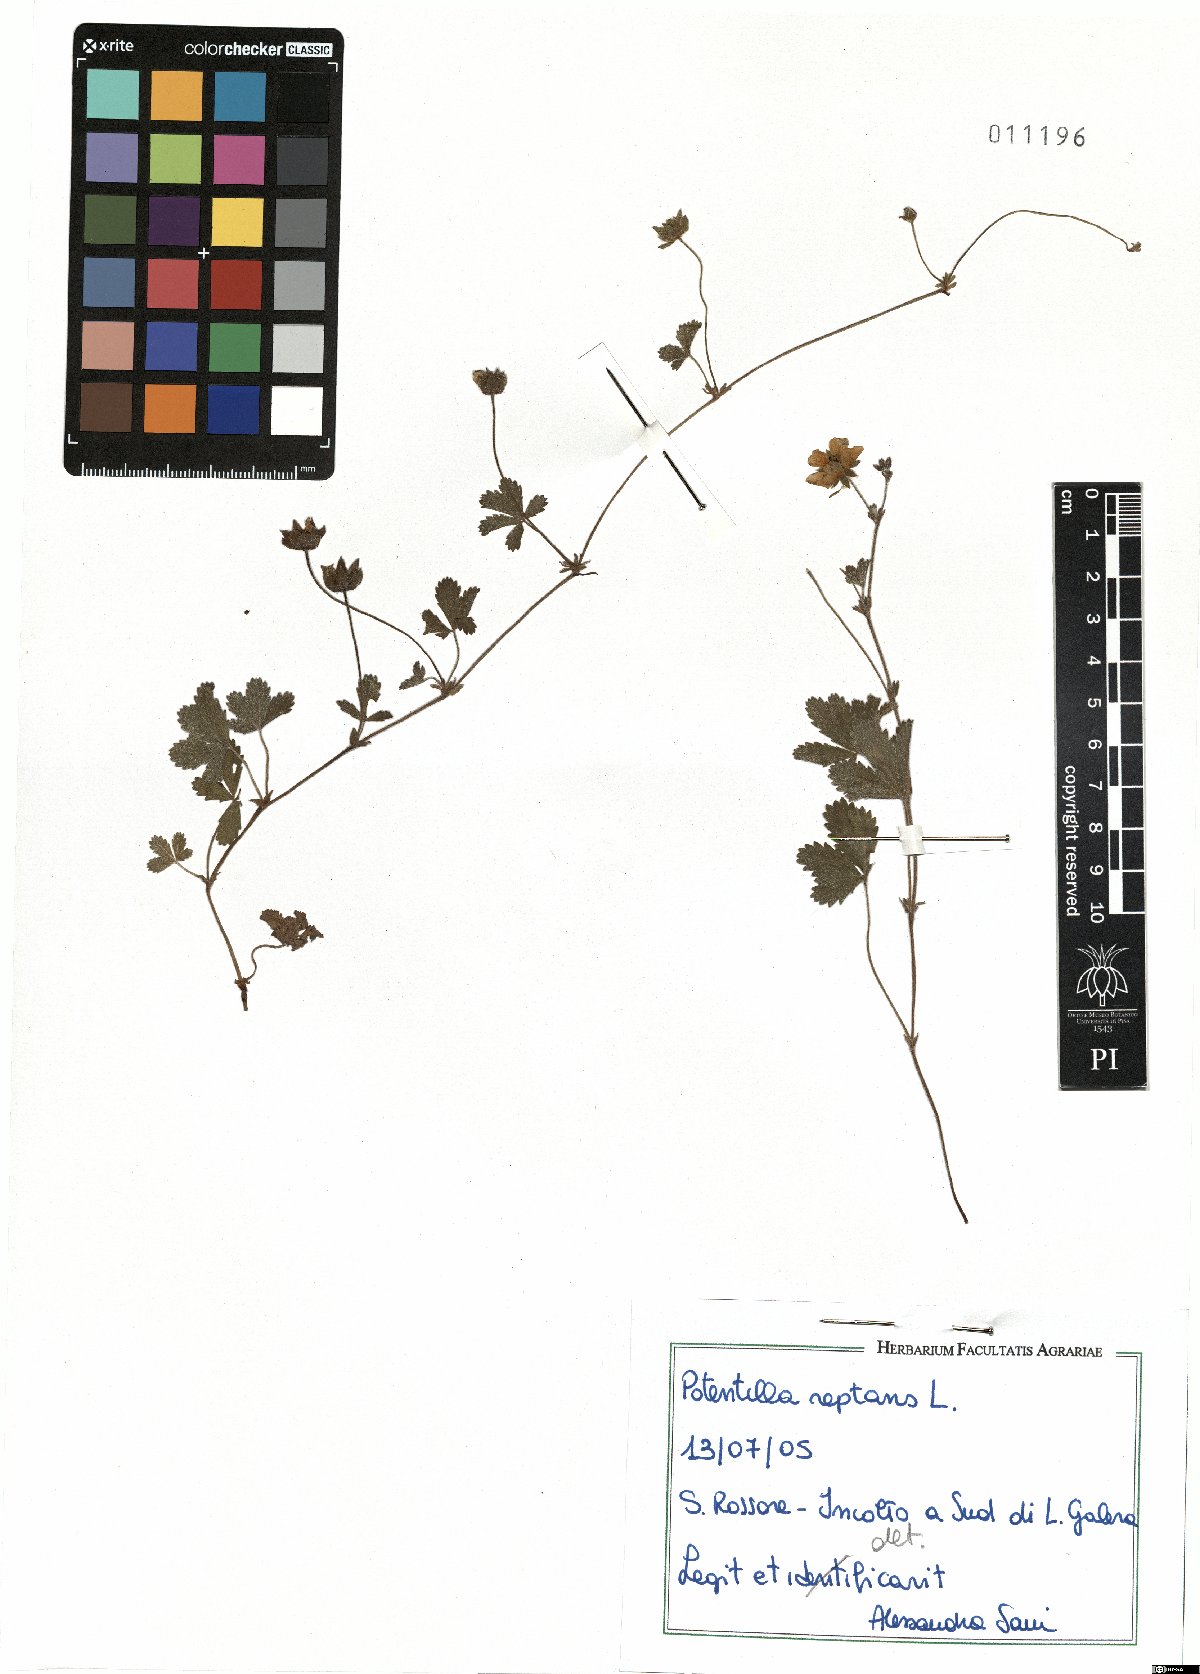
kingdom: Plantae
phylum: Tracheophyta
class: Magnoliopsida
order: Rosales
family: Rosaceae
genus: Potentilla
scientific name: Potentilla reptans
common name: Creeping cinquefoil
